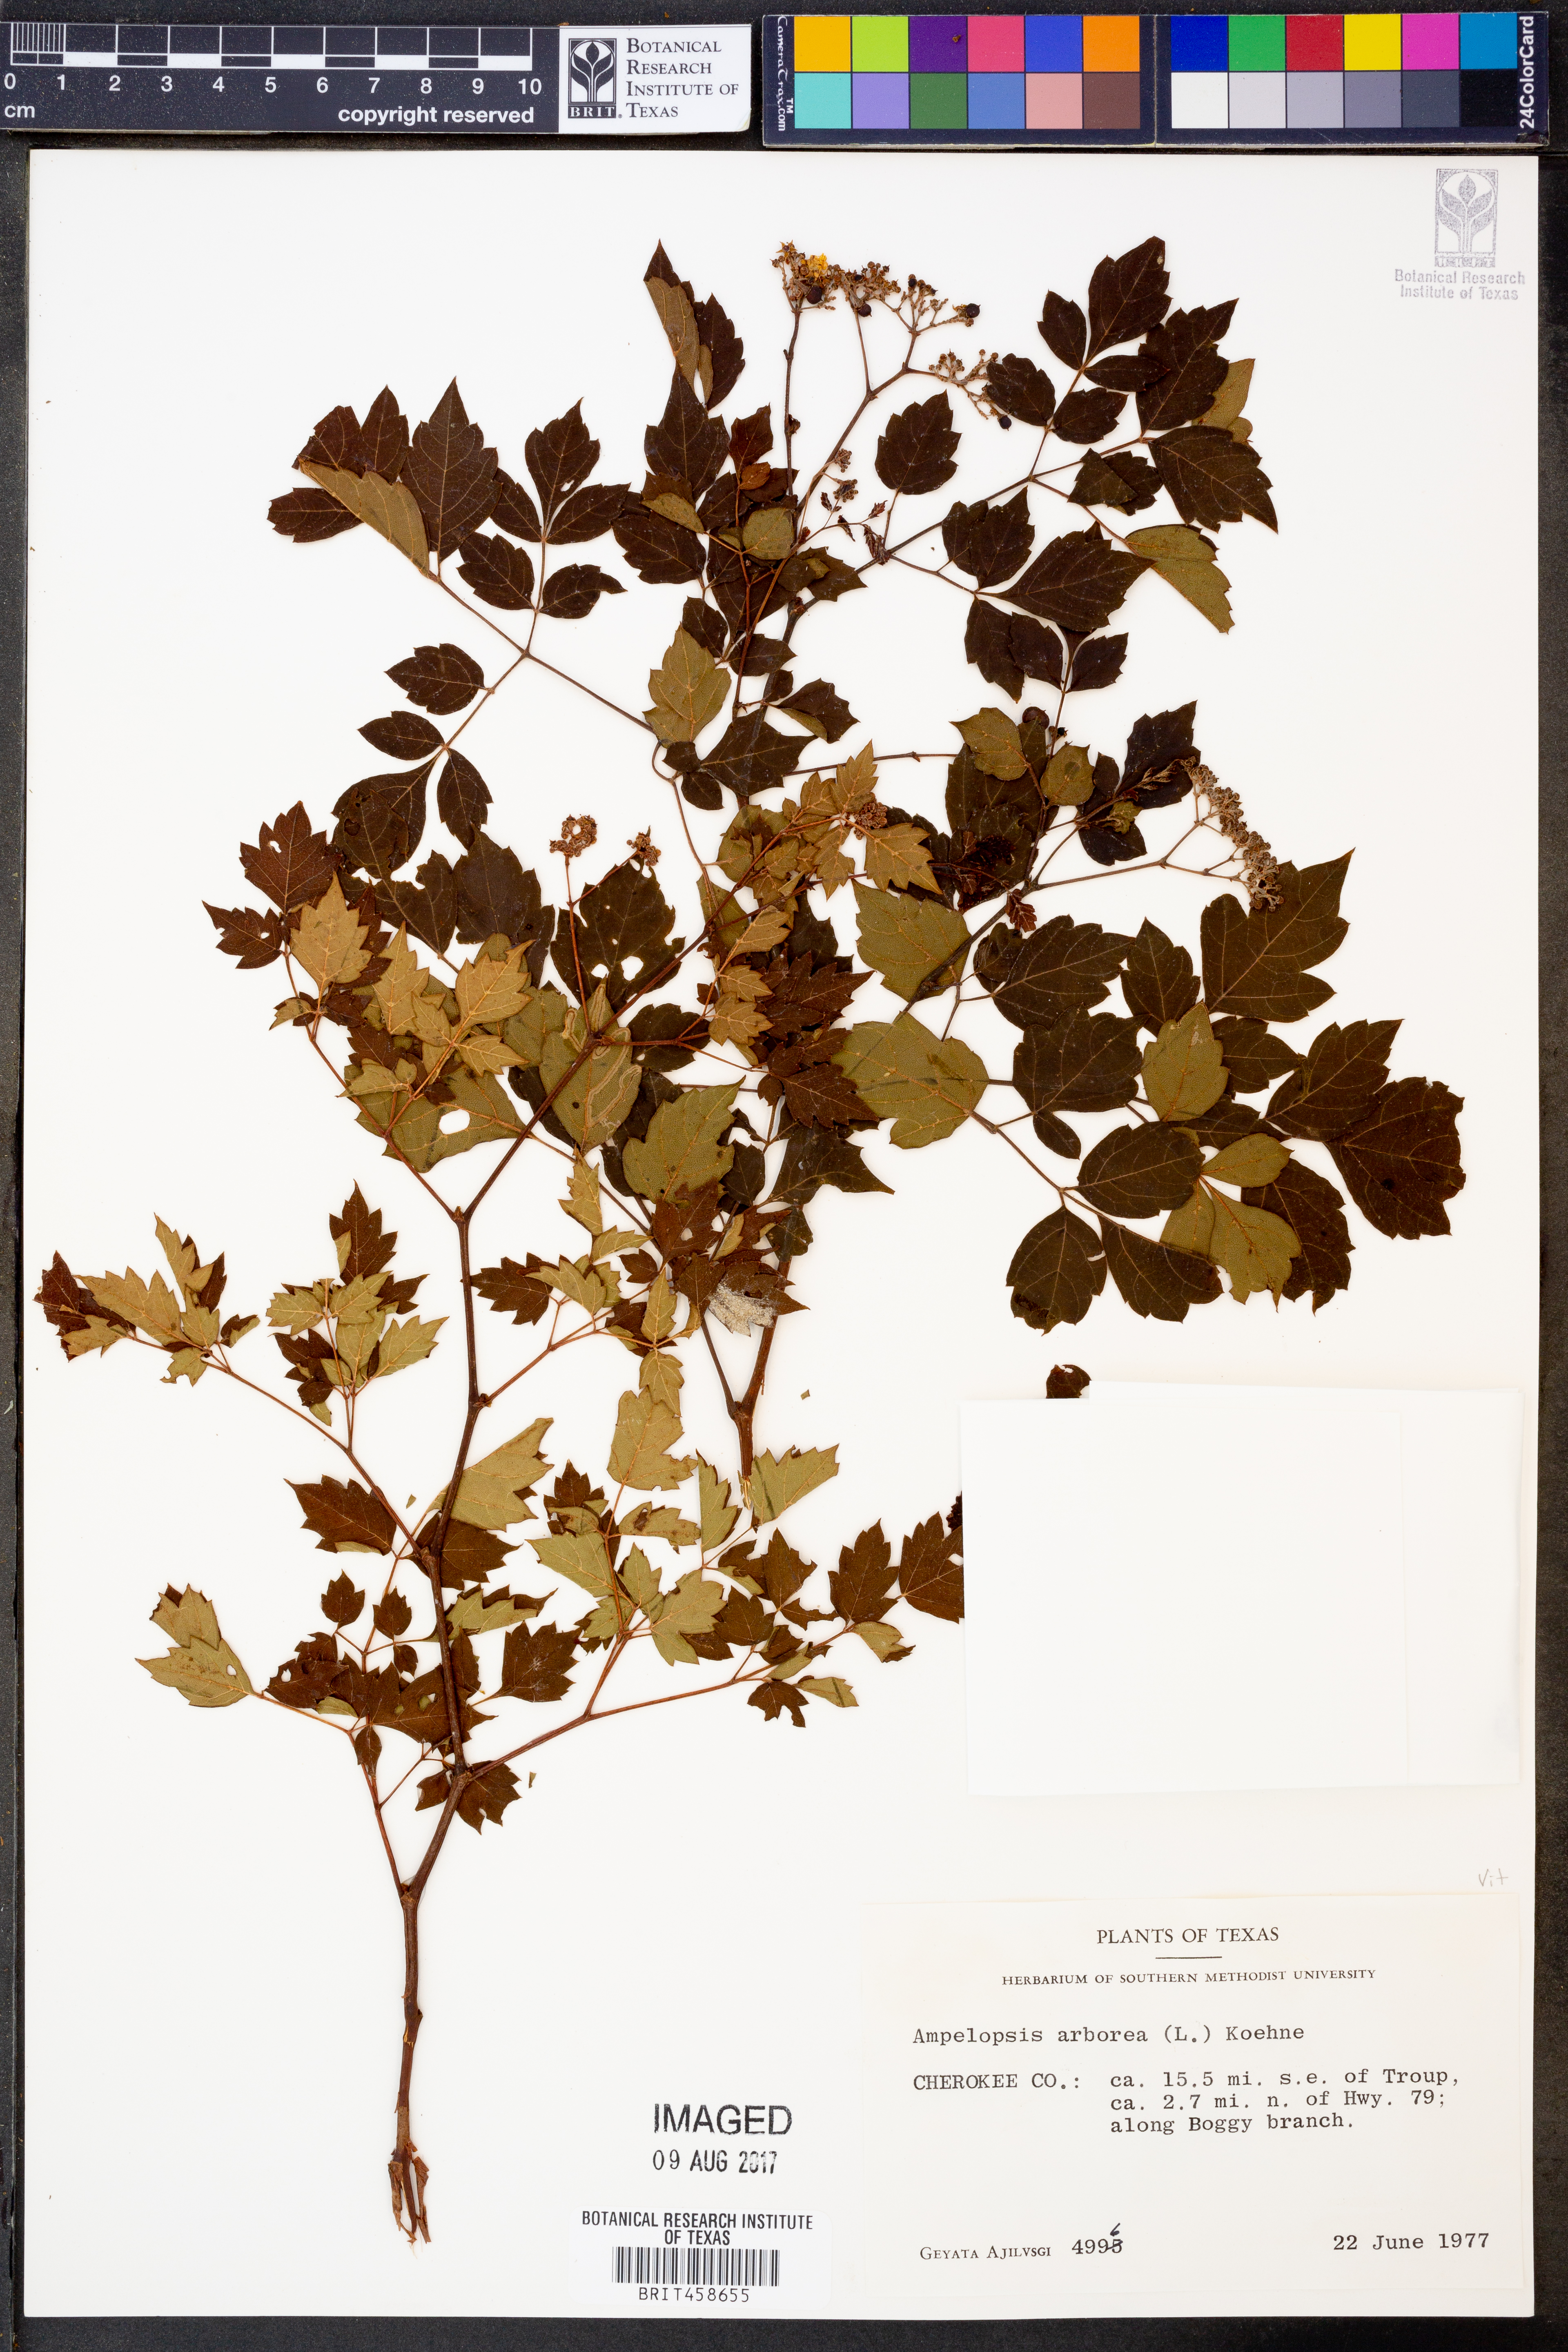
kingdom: Plantae
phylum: Tracheophyta
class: Magnoliopsida
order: Vitales
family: Vitaceae
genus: Nekemias
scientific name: Nekemias arborea
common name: Peppervine
